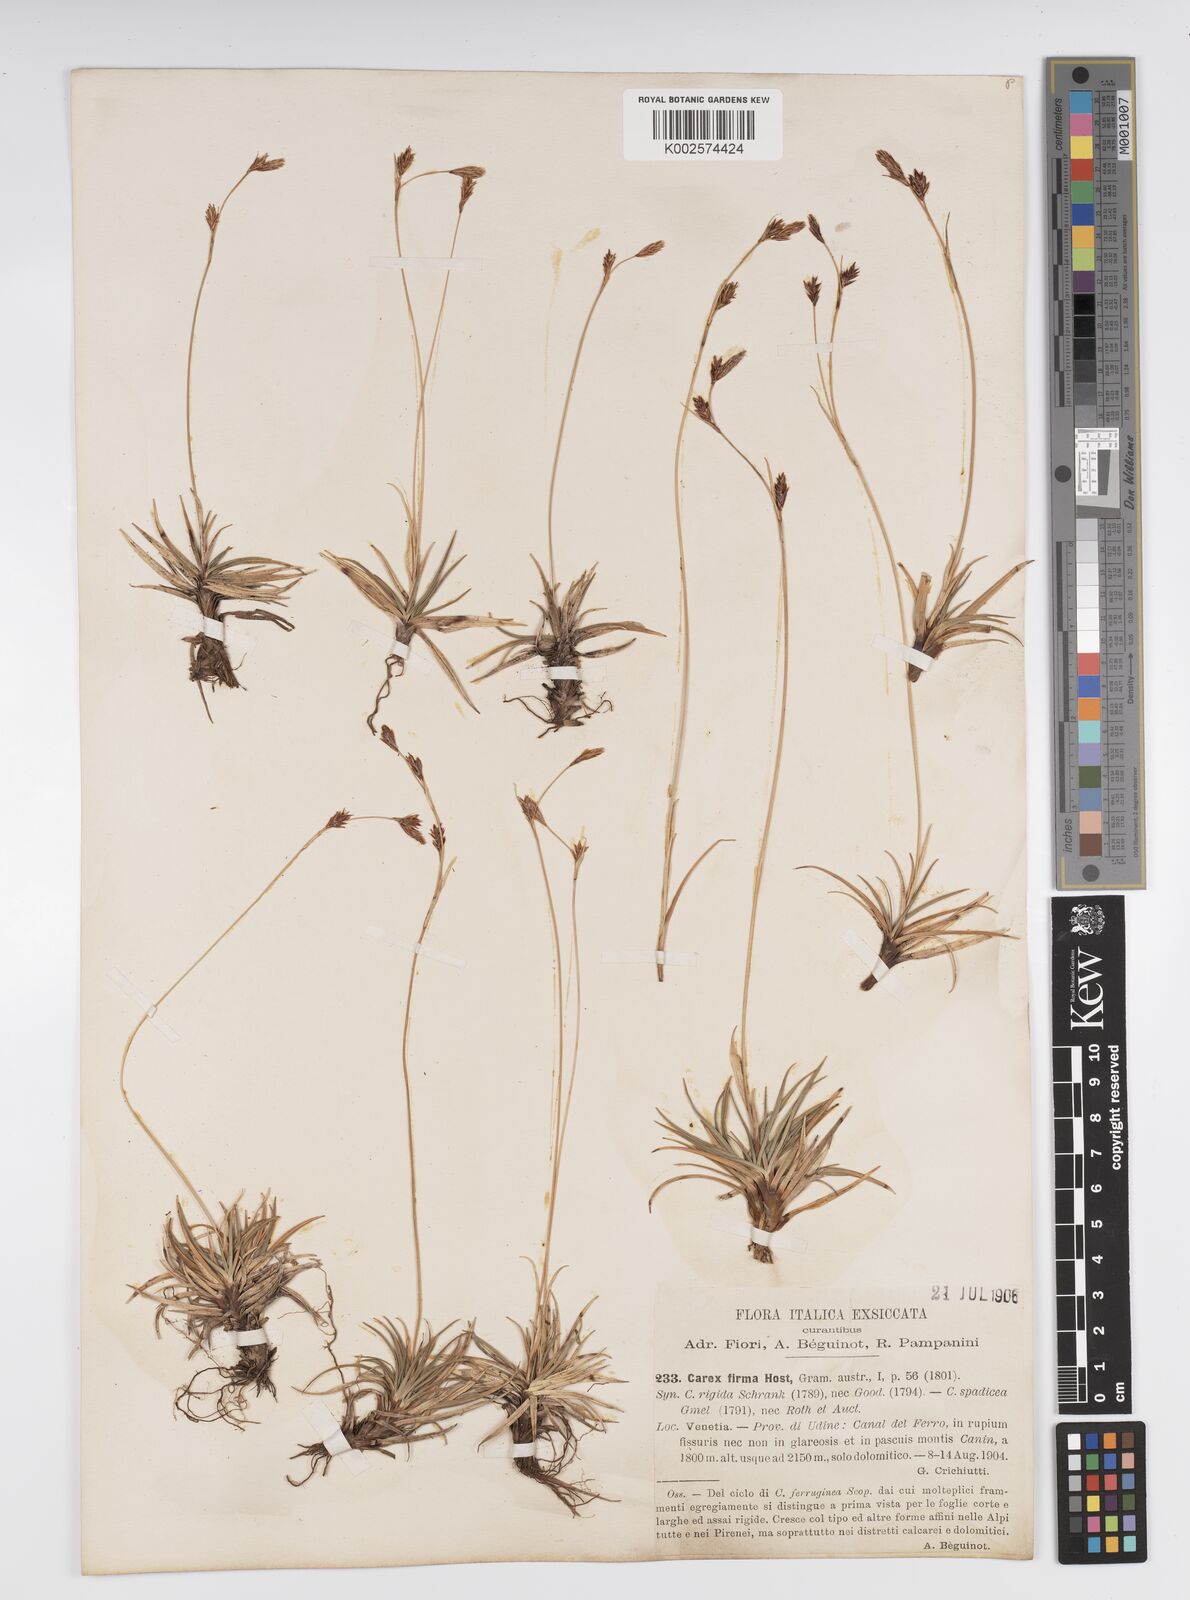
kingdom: Plantae
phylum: Tracheophyta
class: Liliopsida
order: Poales
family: Cyperaceae
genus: Carex
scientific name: Carex firma
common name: Dwarf pillow sedge
